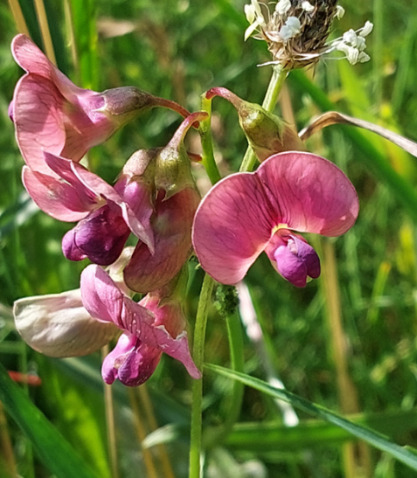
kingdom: Plantae
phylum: Tracheophyta
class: Magnoliopsida
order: Fabales
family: Fabaceae
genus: Lathyrus
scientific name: Lathyrus sylvestris
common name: Skov-fladbælg
